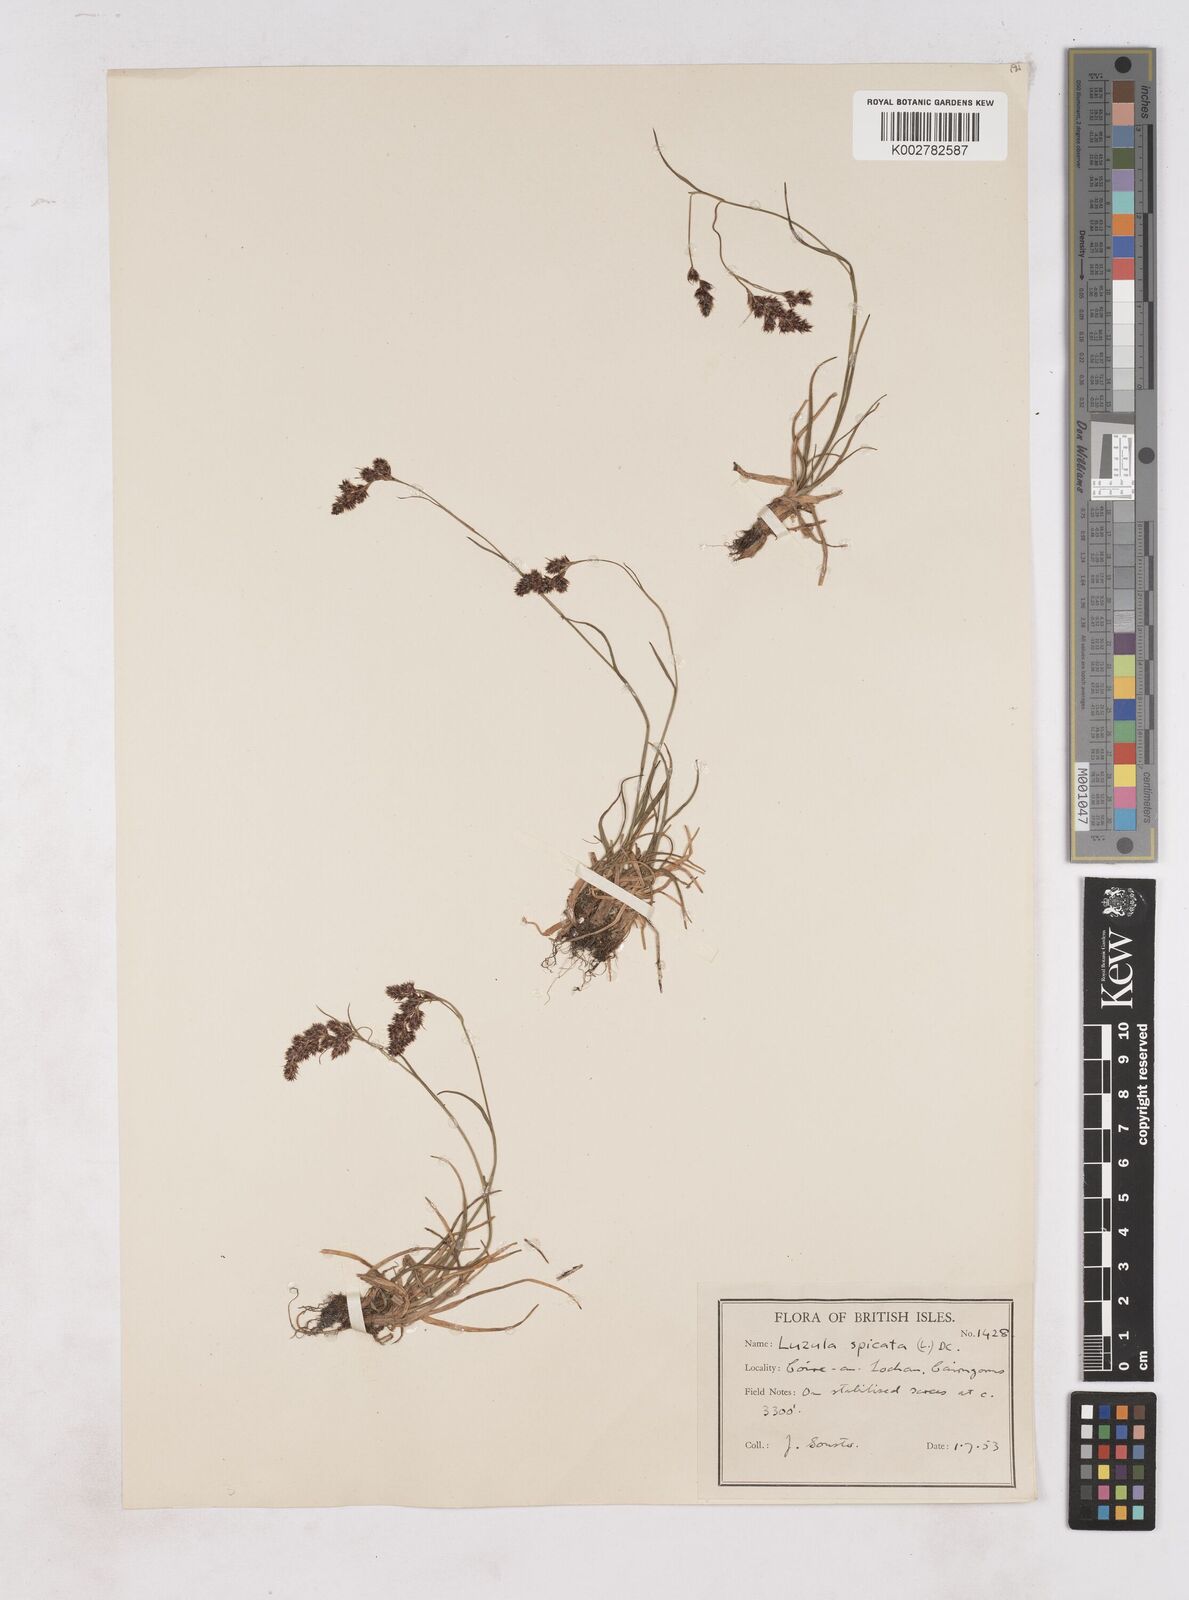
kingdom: Plantae
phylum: Tracheophyta
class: Liliopsida
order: Poales
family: Juncaceae
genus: Luzula
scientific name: Luzula spicata
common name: Spiked wood-rush
